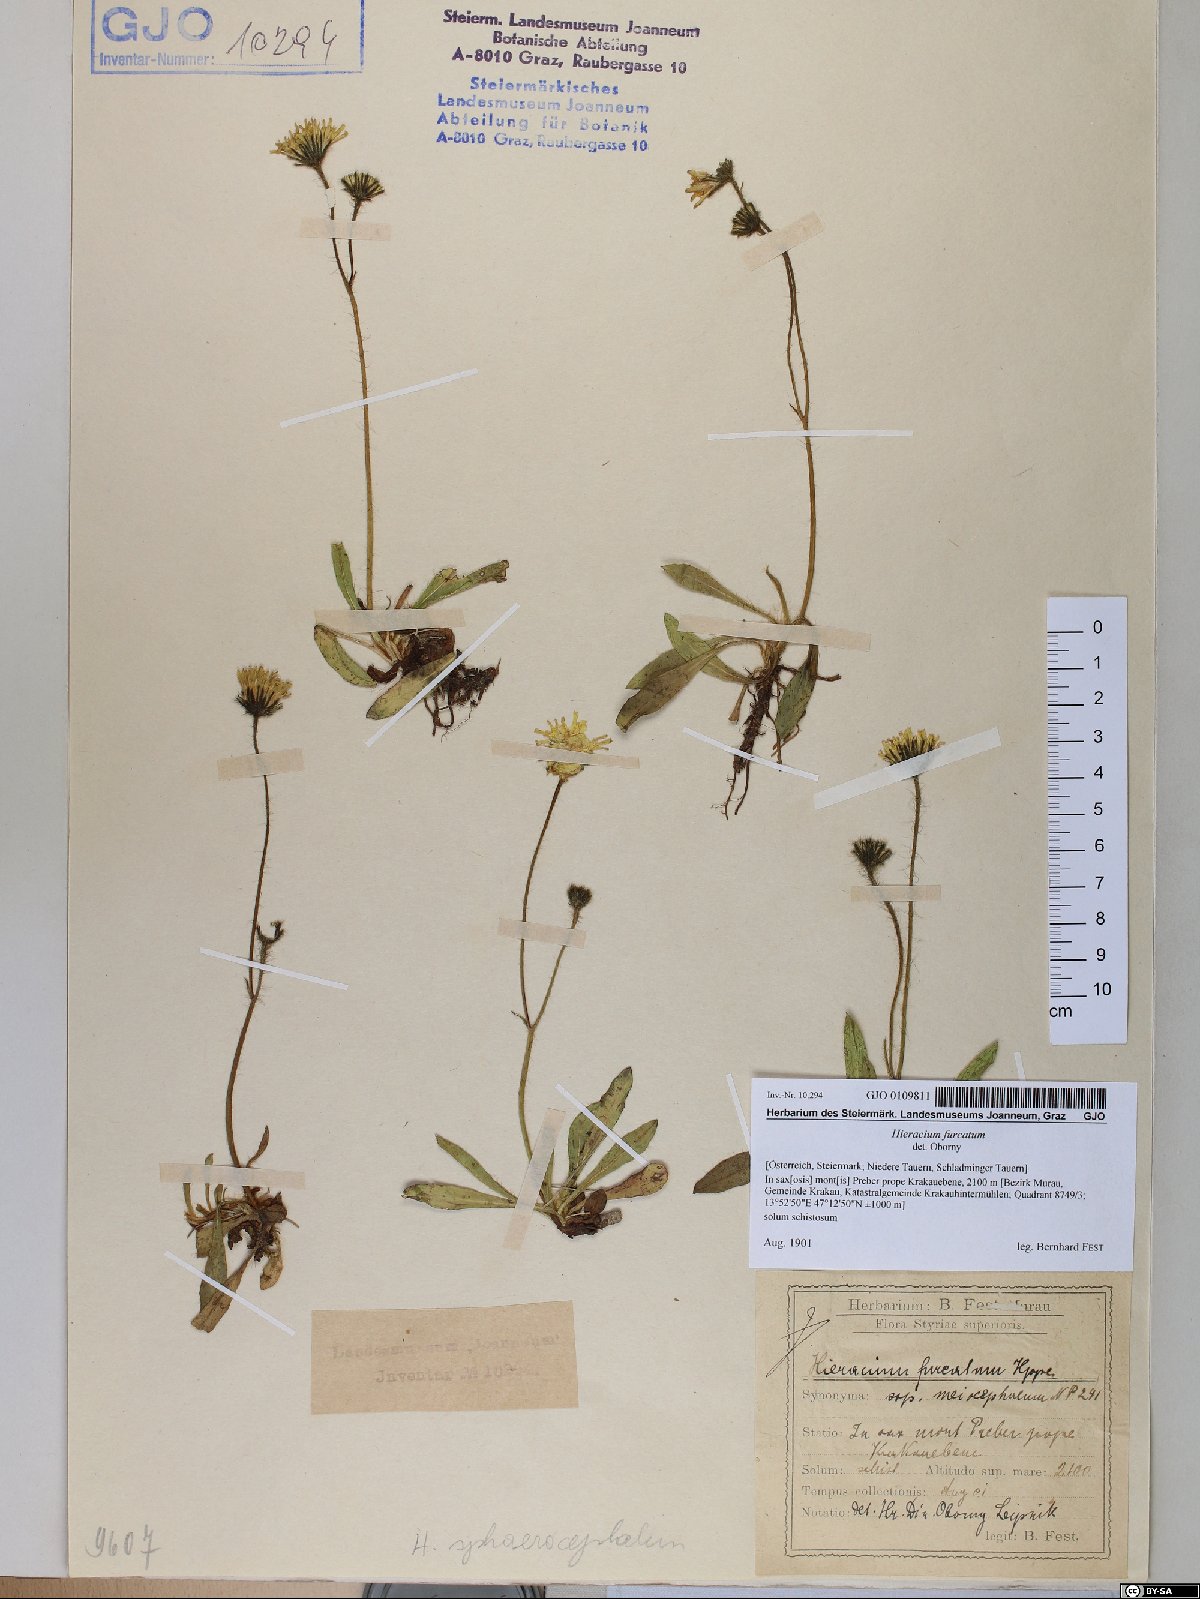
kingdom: Plantae
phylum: Tracheophyta
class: Magnoliopsida
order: Asterales
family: Asteraceae
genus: Pilosella
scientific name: Pilosella sphaerocephala
